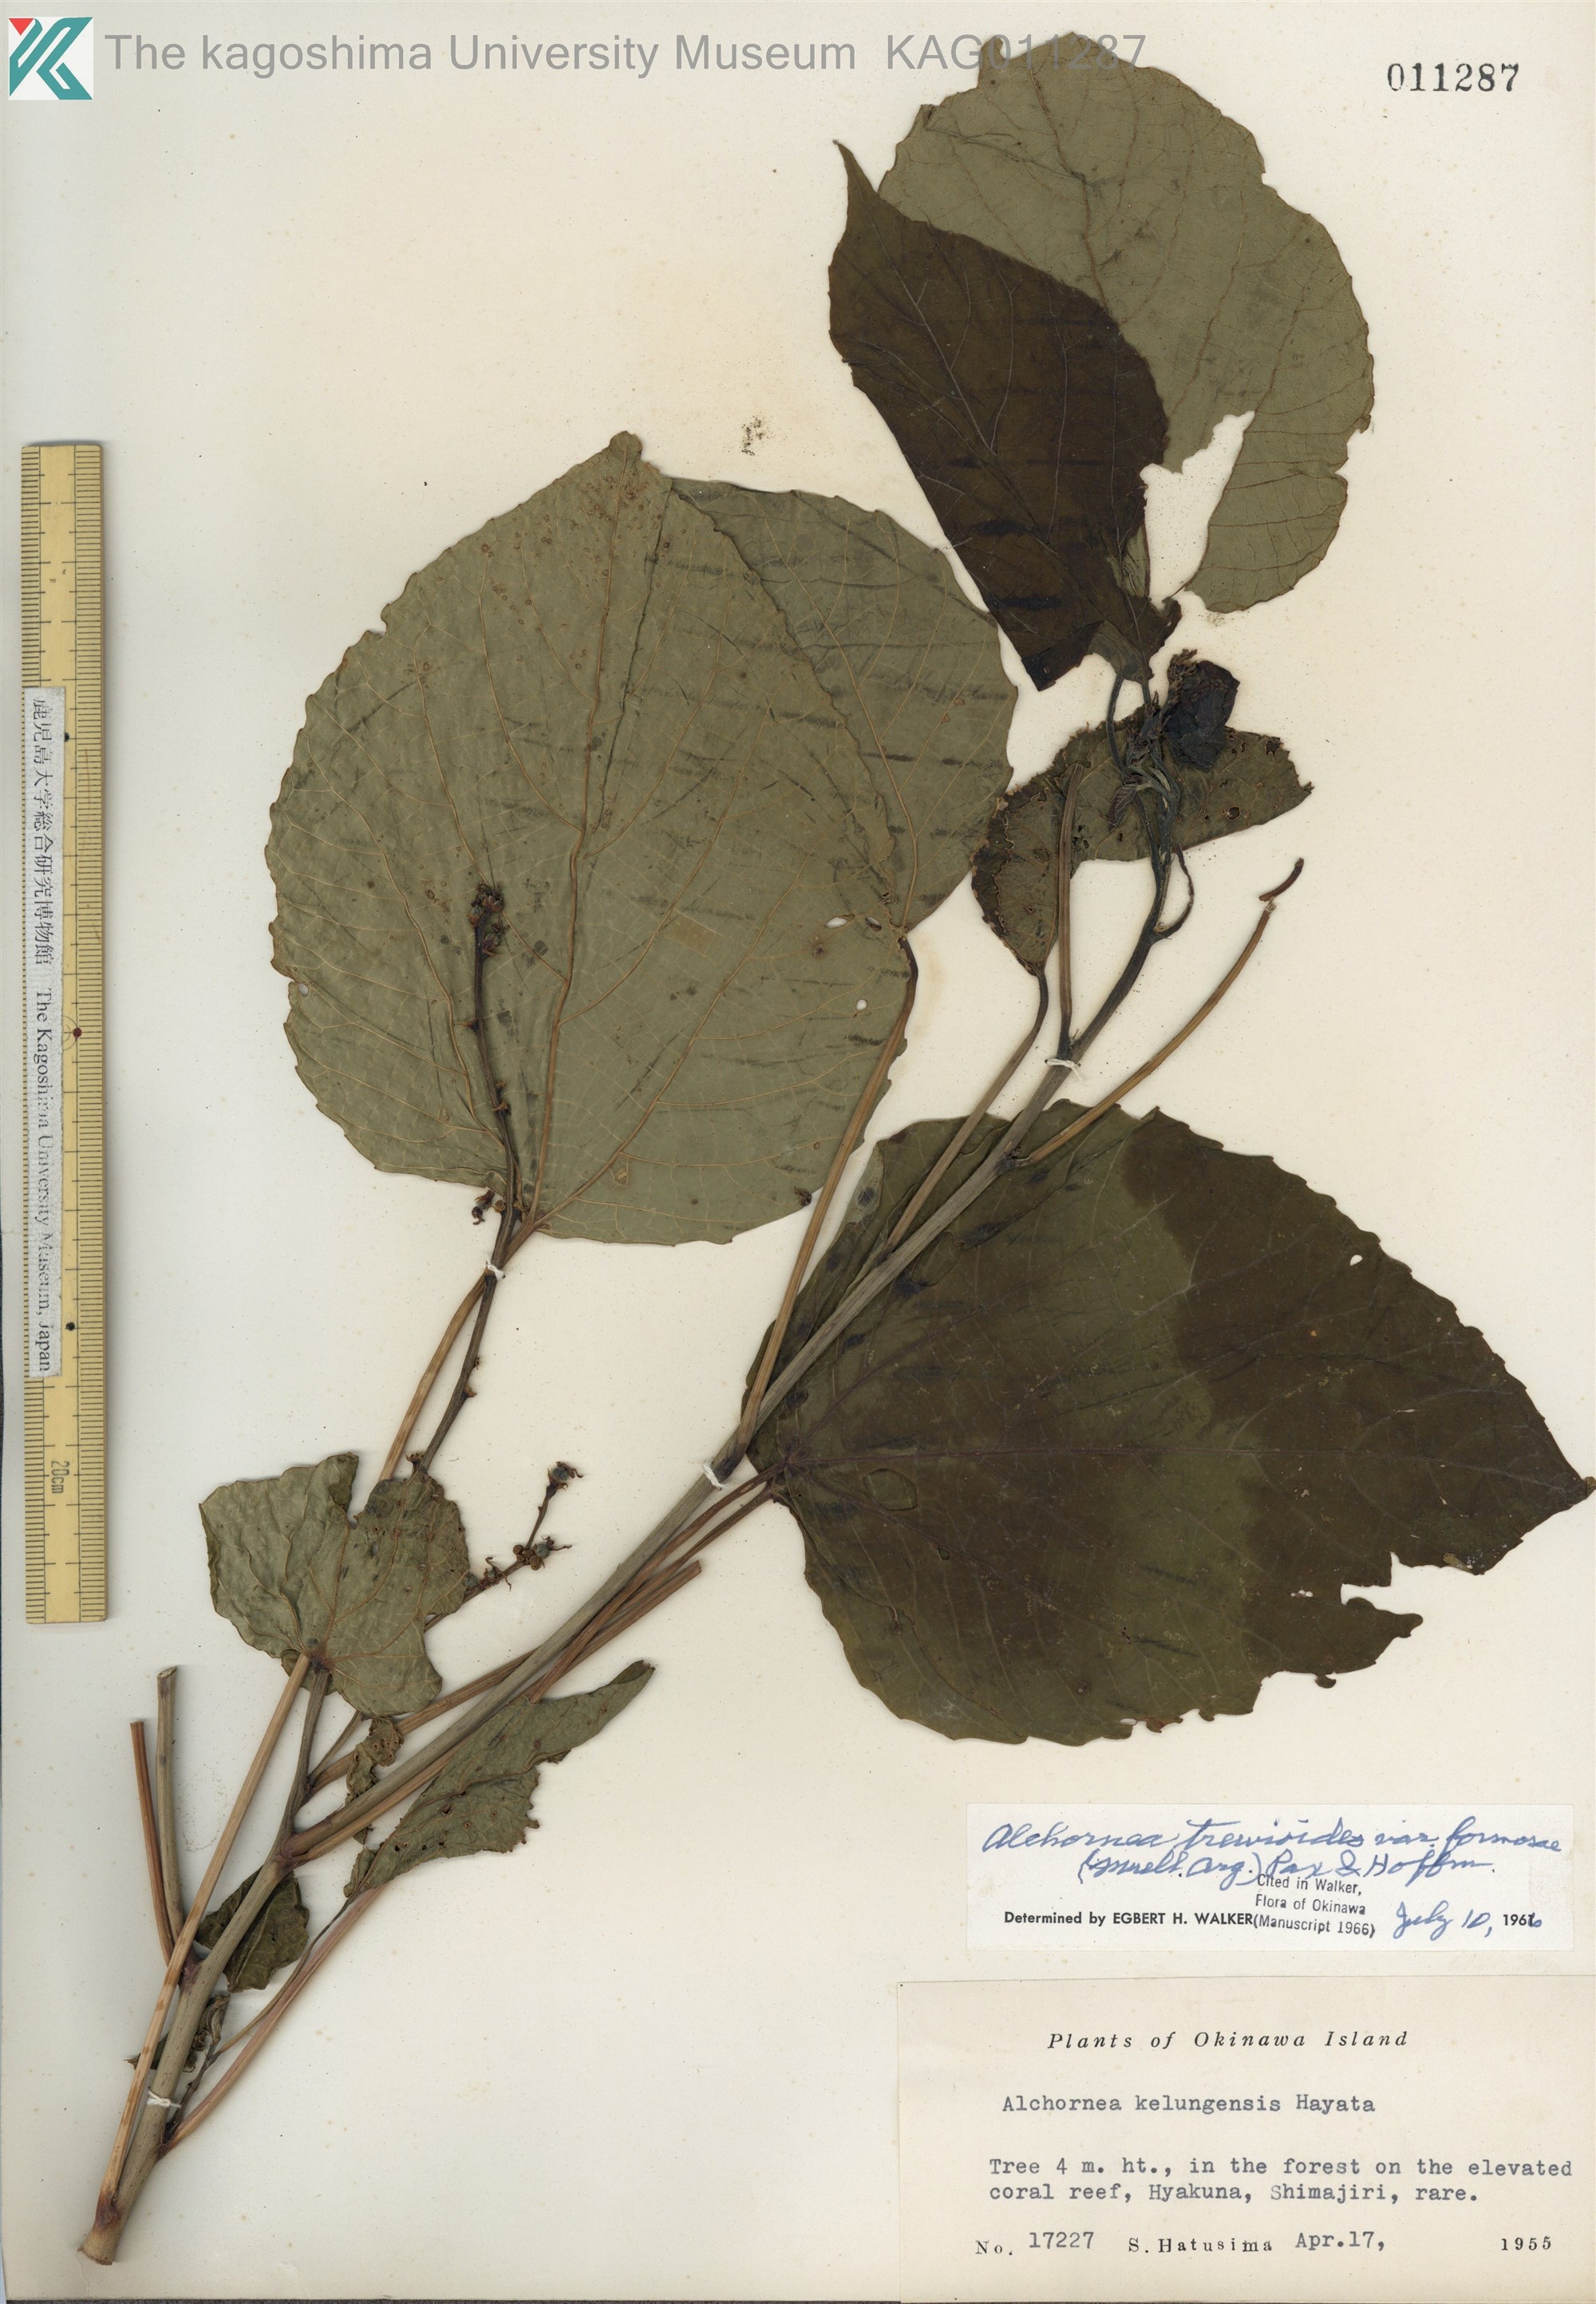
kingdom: Plantae
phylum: Tracheophyta
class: Magnoliopsida
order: Malpighiales
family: Euphorbiaceae
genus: Alchornea
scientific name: Alchornea liukiuensis
